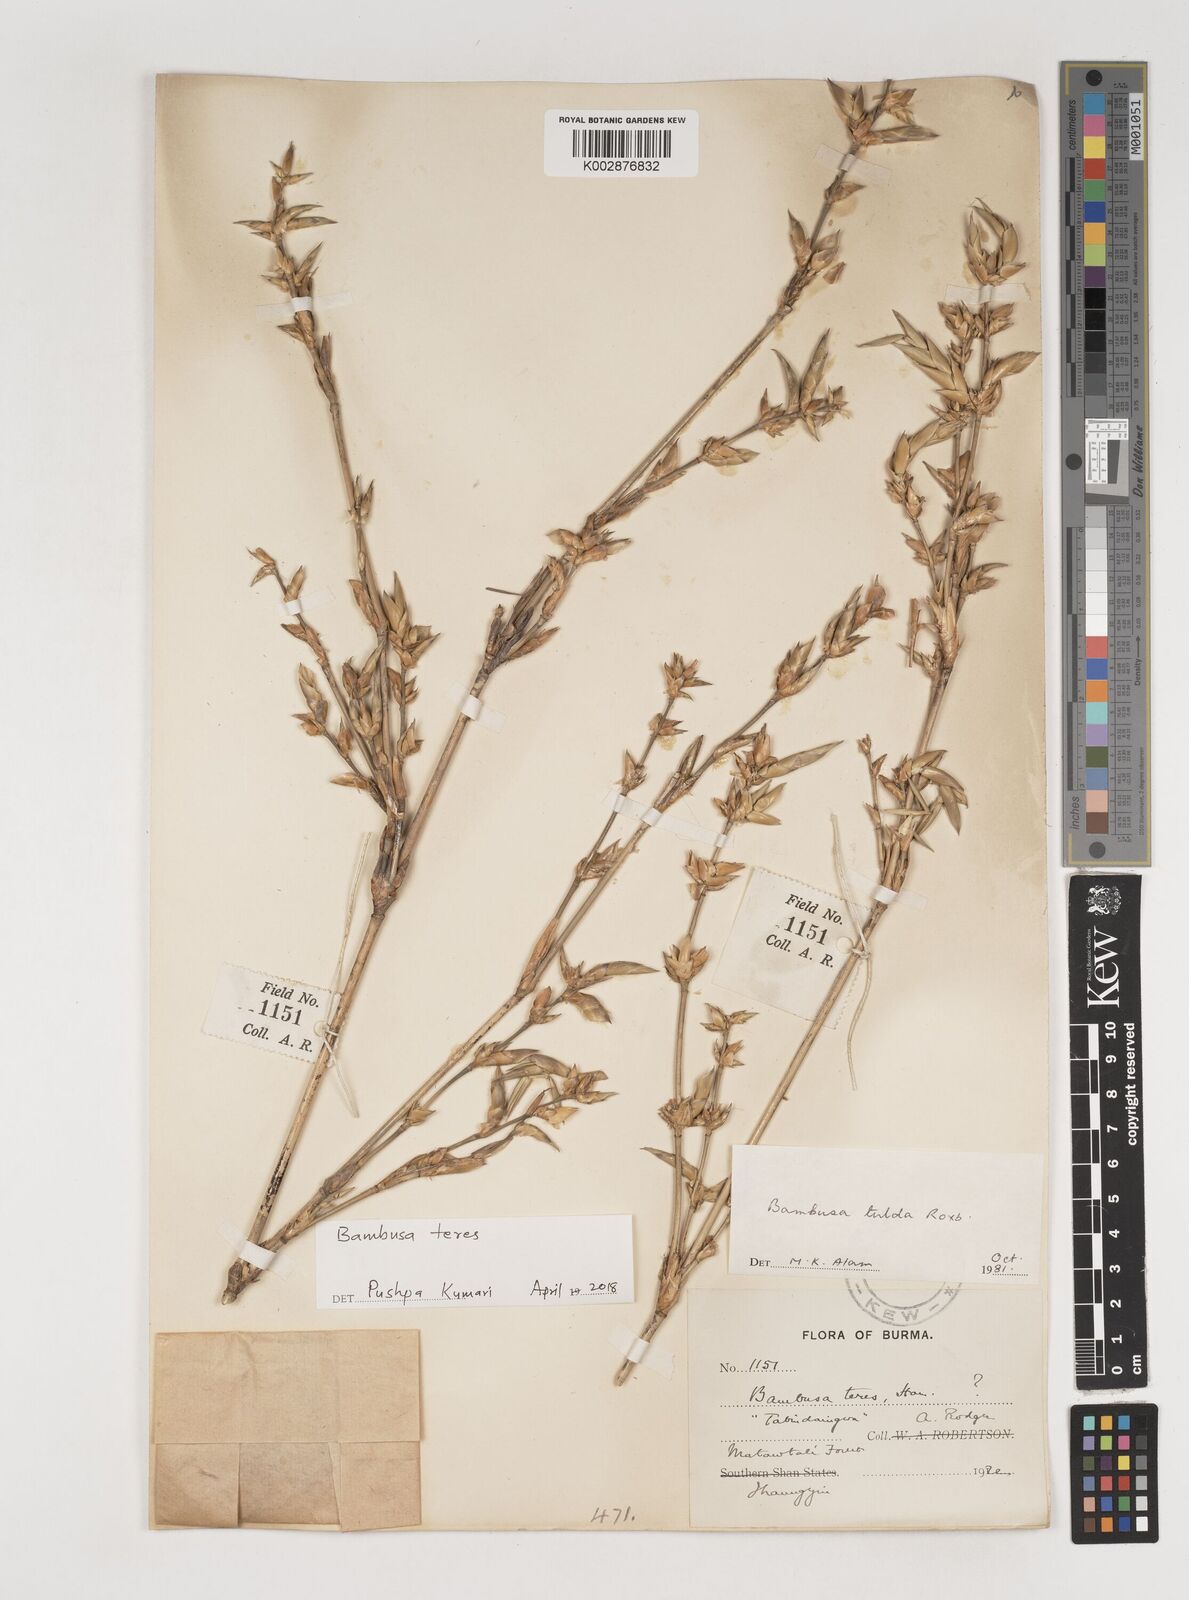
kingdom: Plantae
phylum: Tracheophyta
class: Liliopsida
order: Poales
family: Poaceae
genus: Bambusa
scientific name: Bambusa teres
